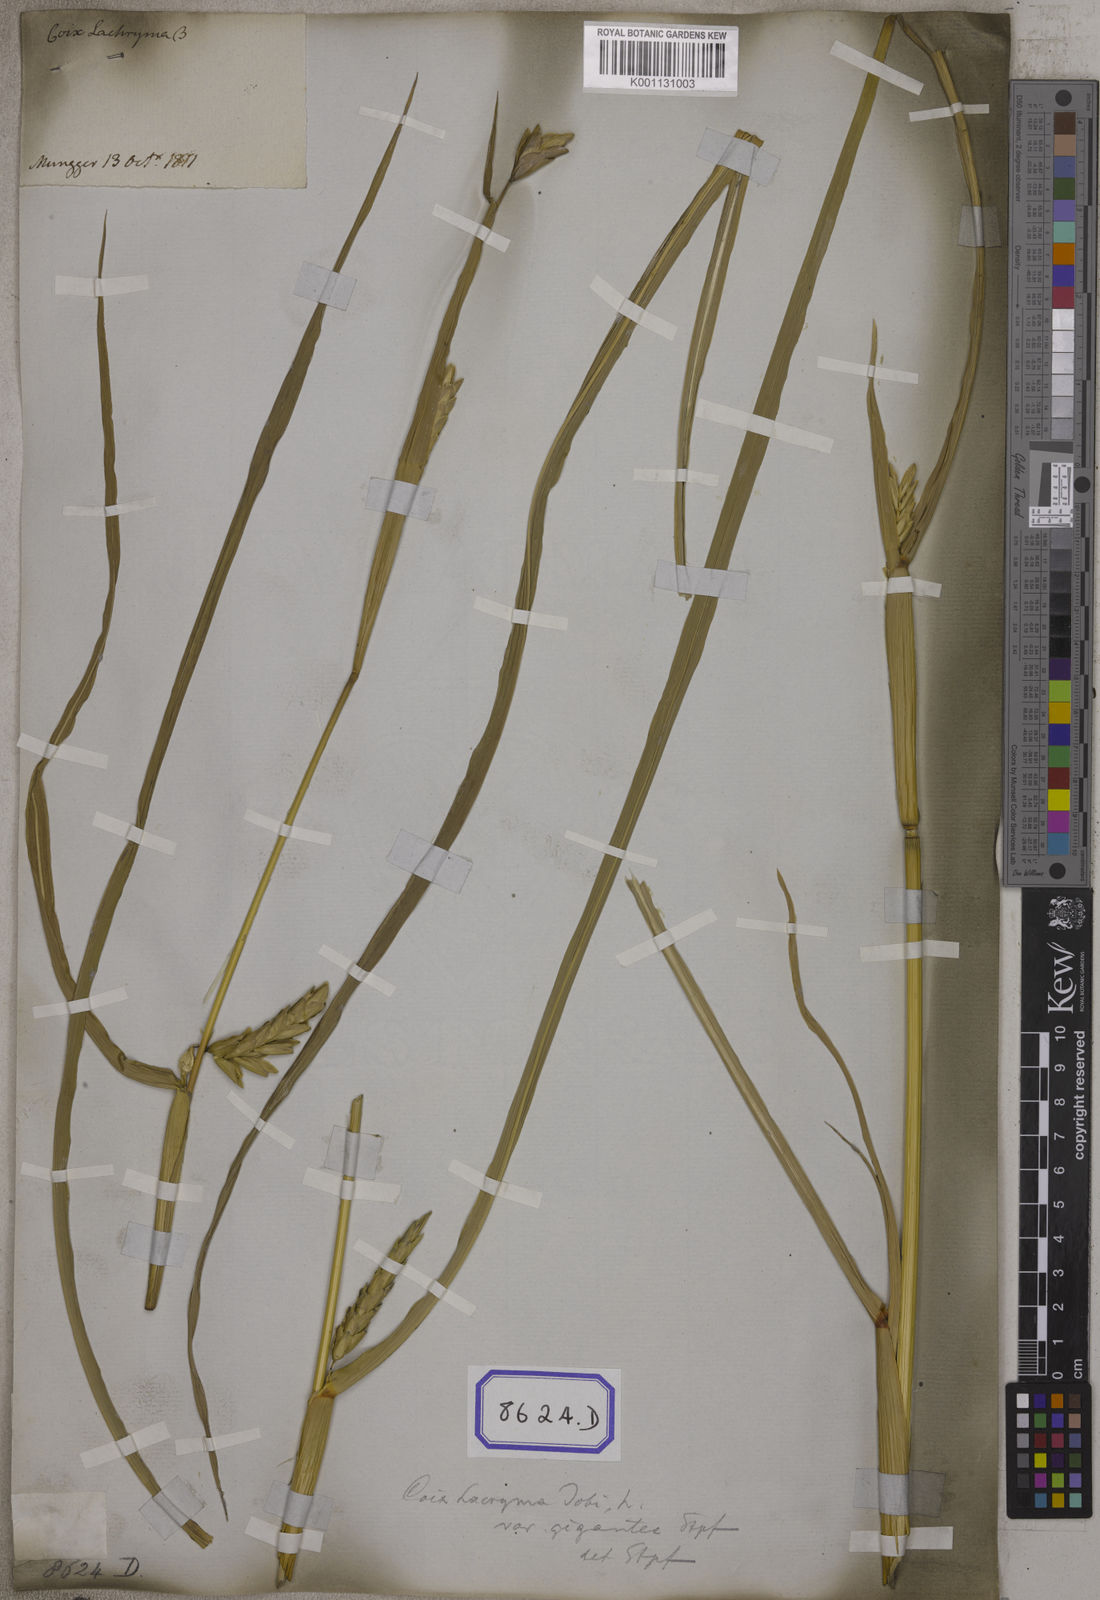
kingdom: Plantae
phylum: Tracheophyta
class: Liliopsida
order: Poales
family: Poaceae
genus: Polytoca
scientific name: Polytoca gigantea
